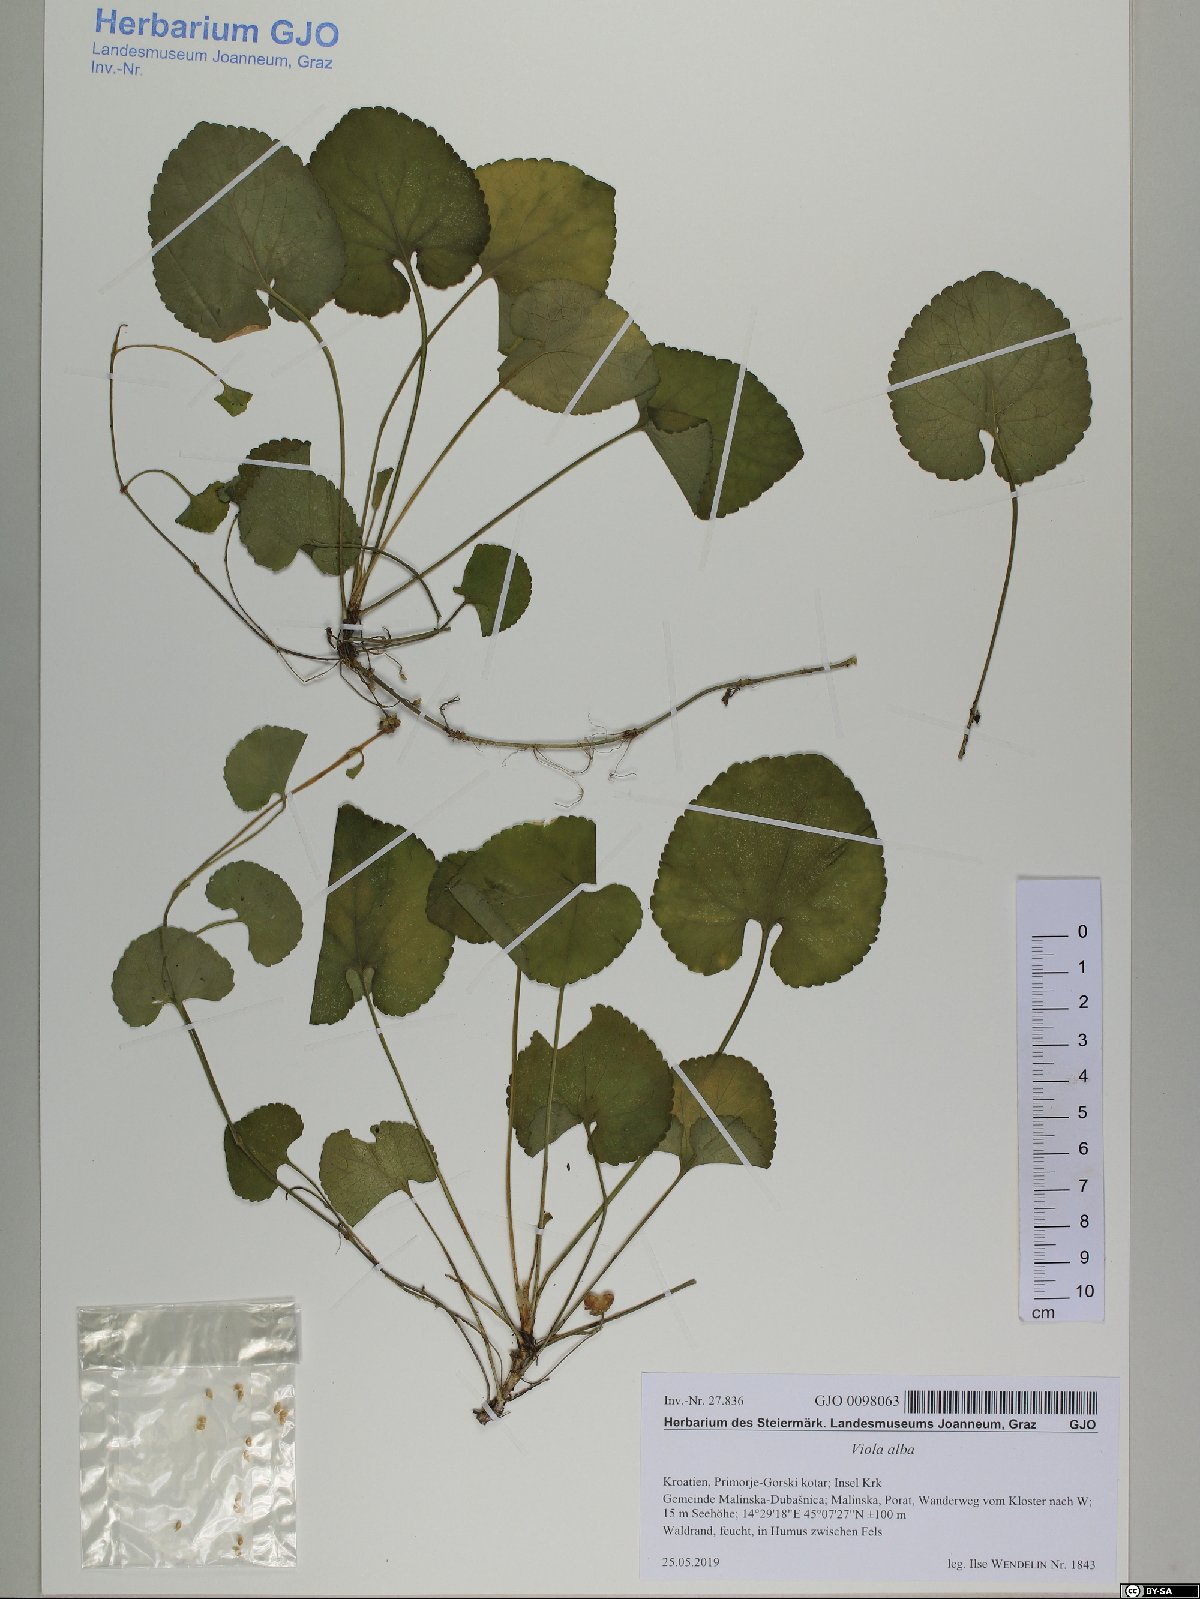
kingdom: Plantae
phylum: Tracheophyta
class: Magnoliopsida
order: Malpighiales
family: Violaceae
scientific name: Violaceae
